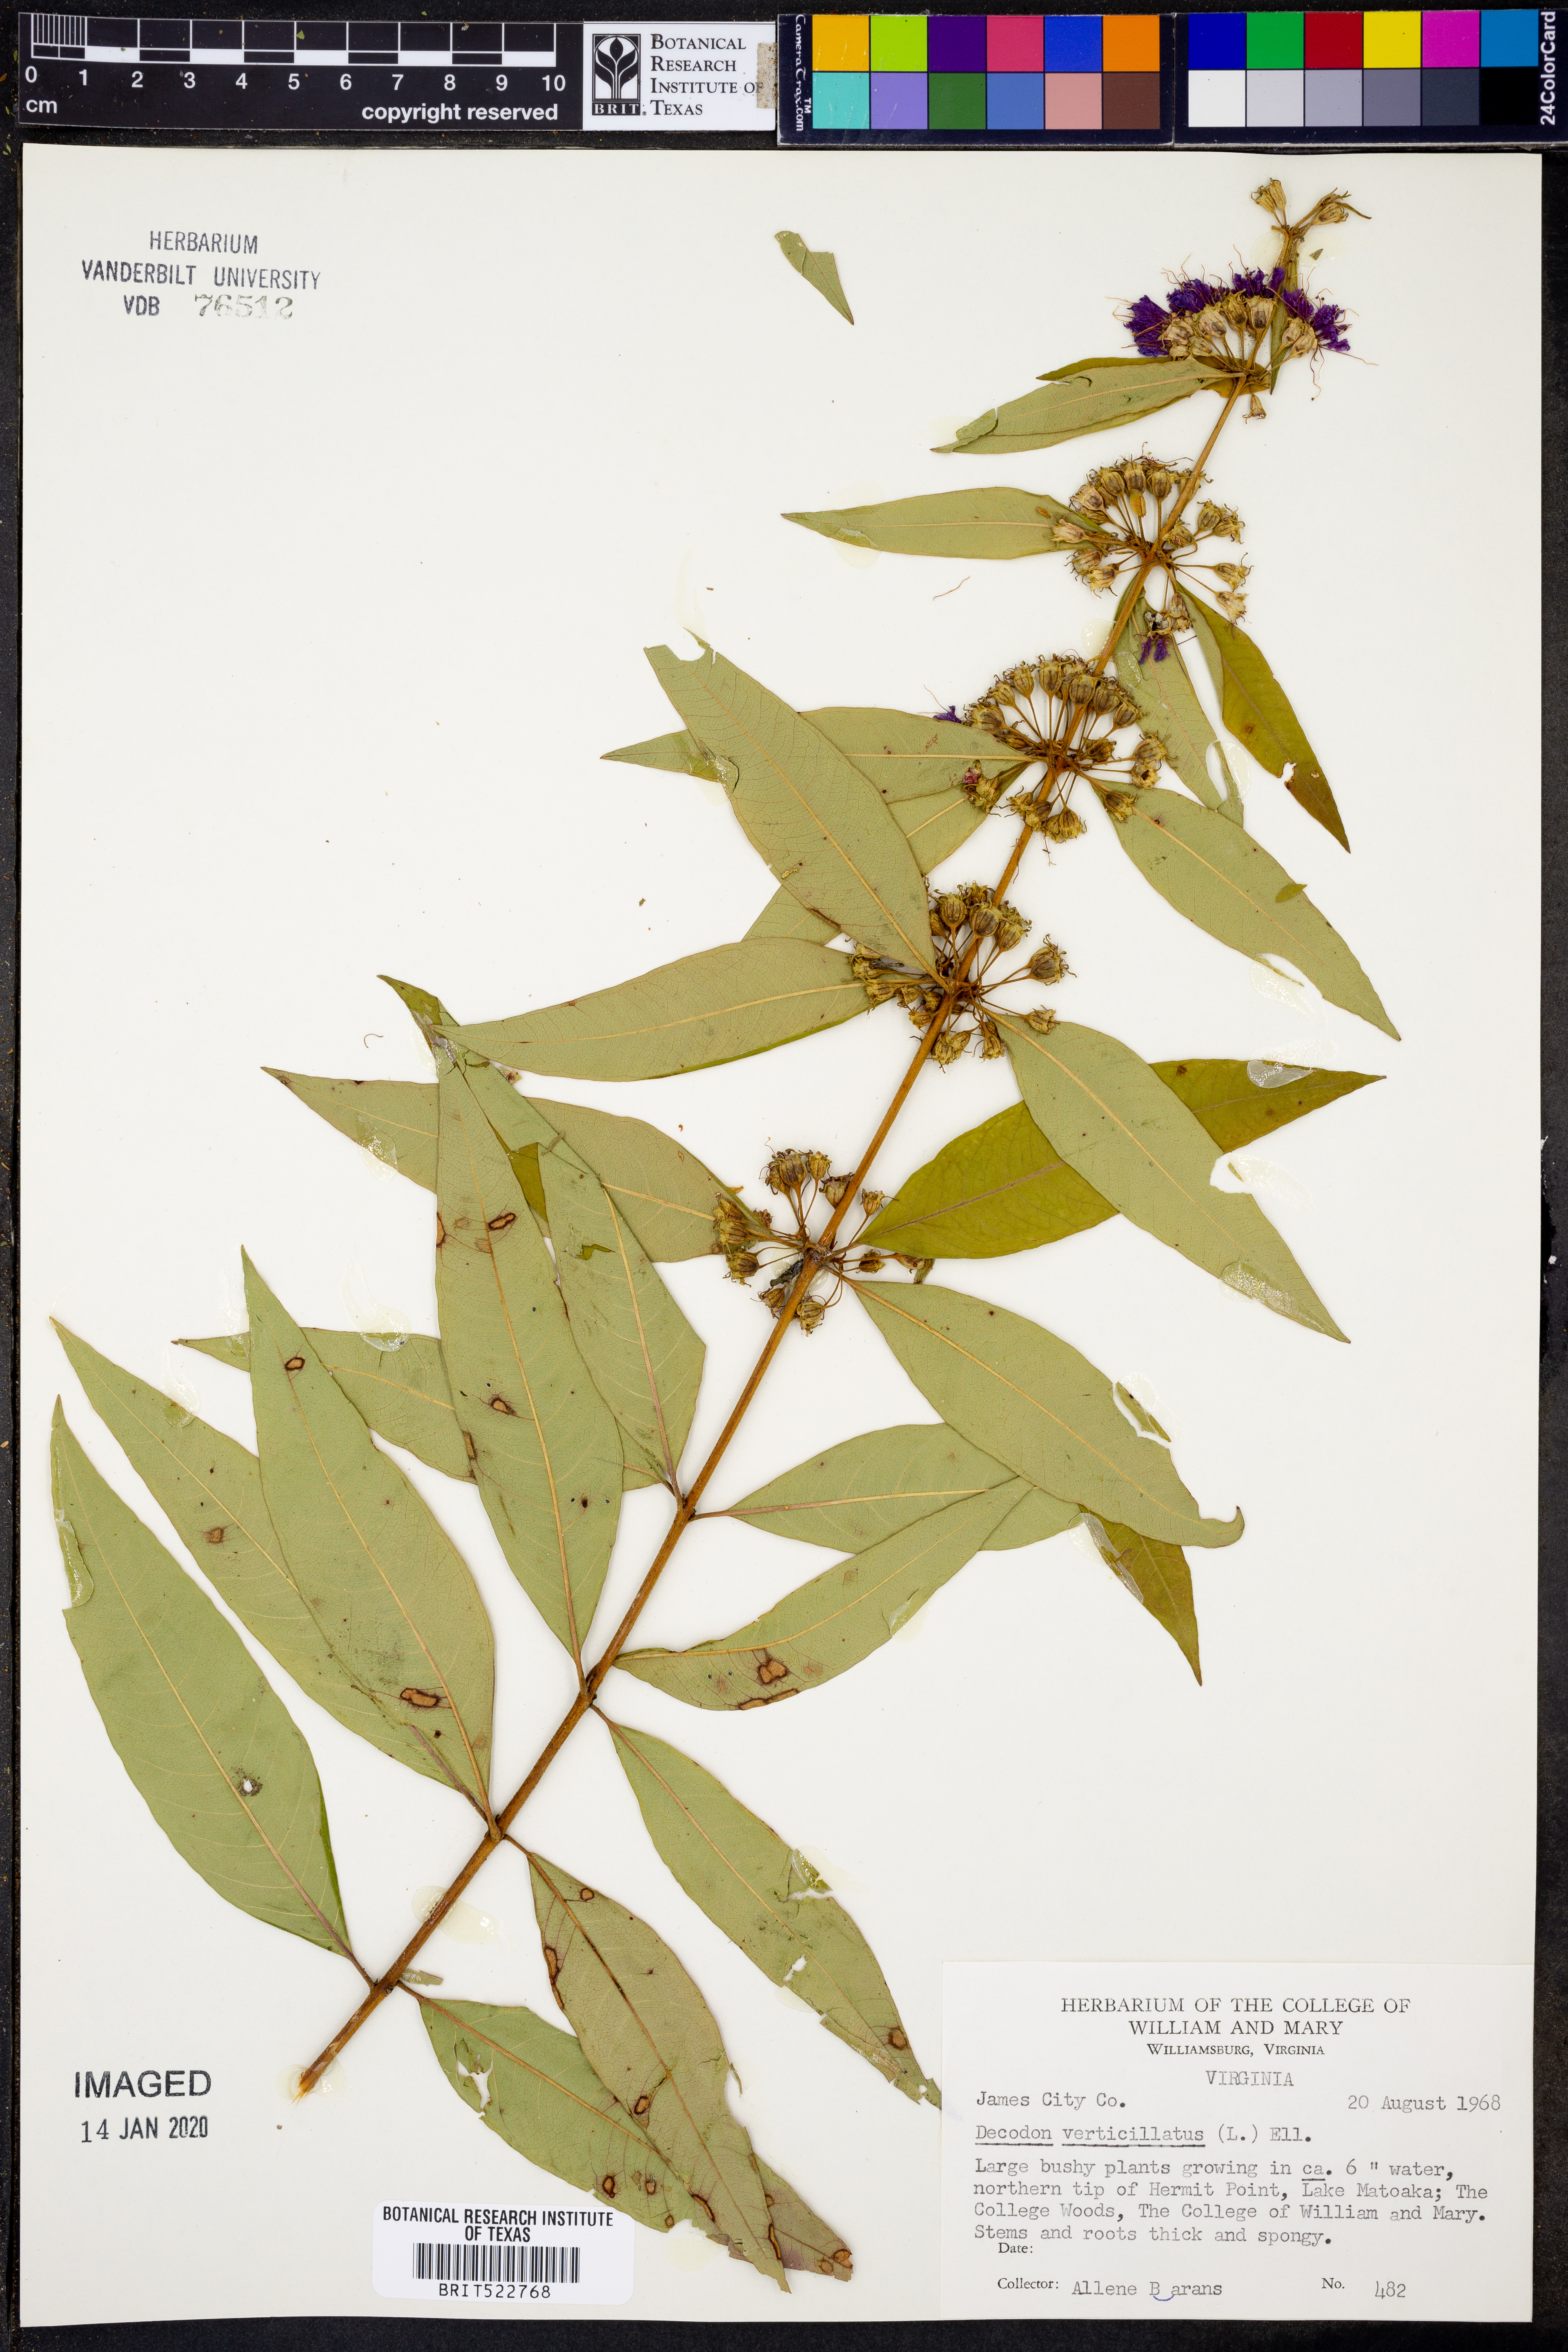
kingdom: Plantae
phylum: Tracheophyta
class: Magnoliopsida
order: Myrtales
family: Lythraceae
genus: Decodon
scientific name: Decodon verticillatus
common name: Hairy swamp loosestrife
